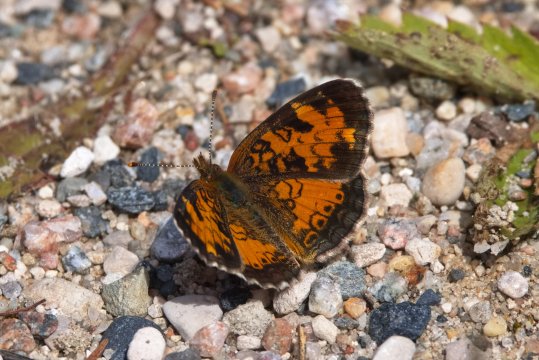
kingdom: Animalia
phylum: Arthropoda
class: Insecta
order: Lepidoptera
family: Nymphalidae
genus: Phyciodes
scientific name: Phyciodes tharos
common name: Northern Crescent
